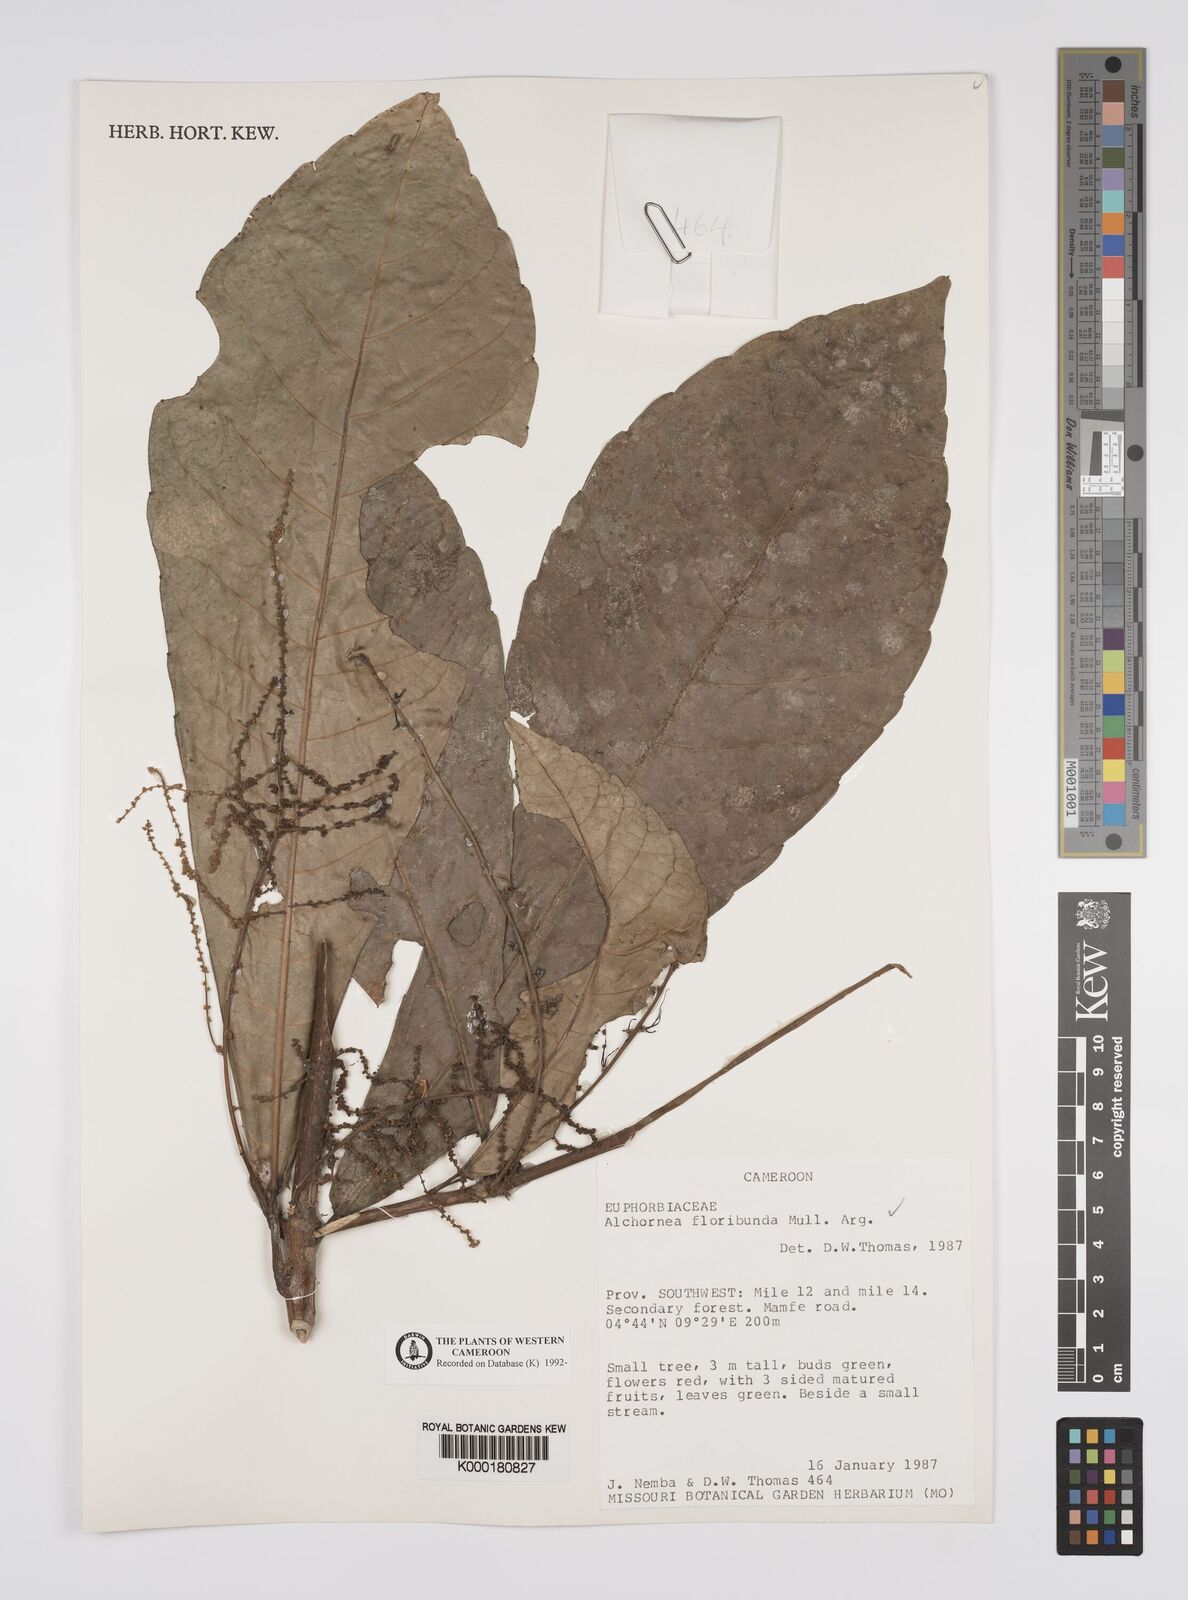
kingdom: Plantae
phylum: Tracheophyta
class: Magnoliopsida
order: Malpighiales
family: Euphorbiaceae
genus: Alchornea
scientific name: Alchornea
